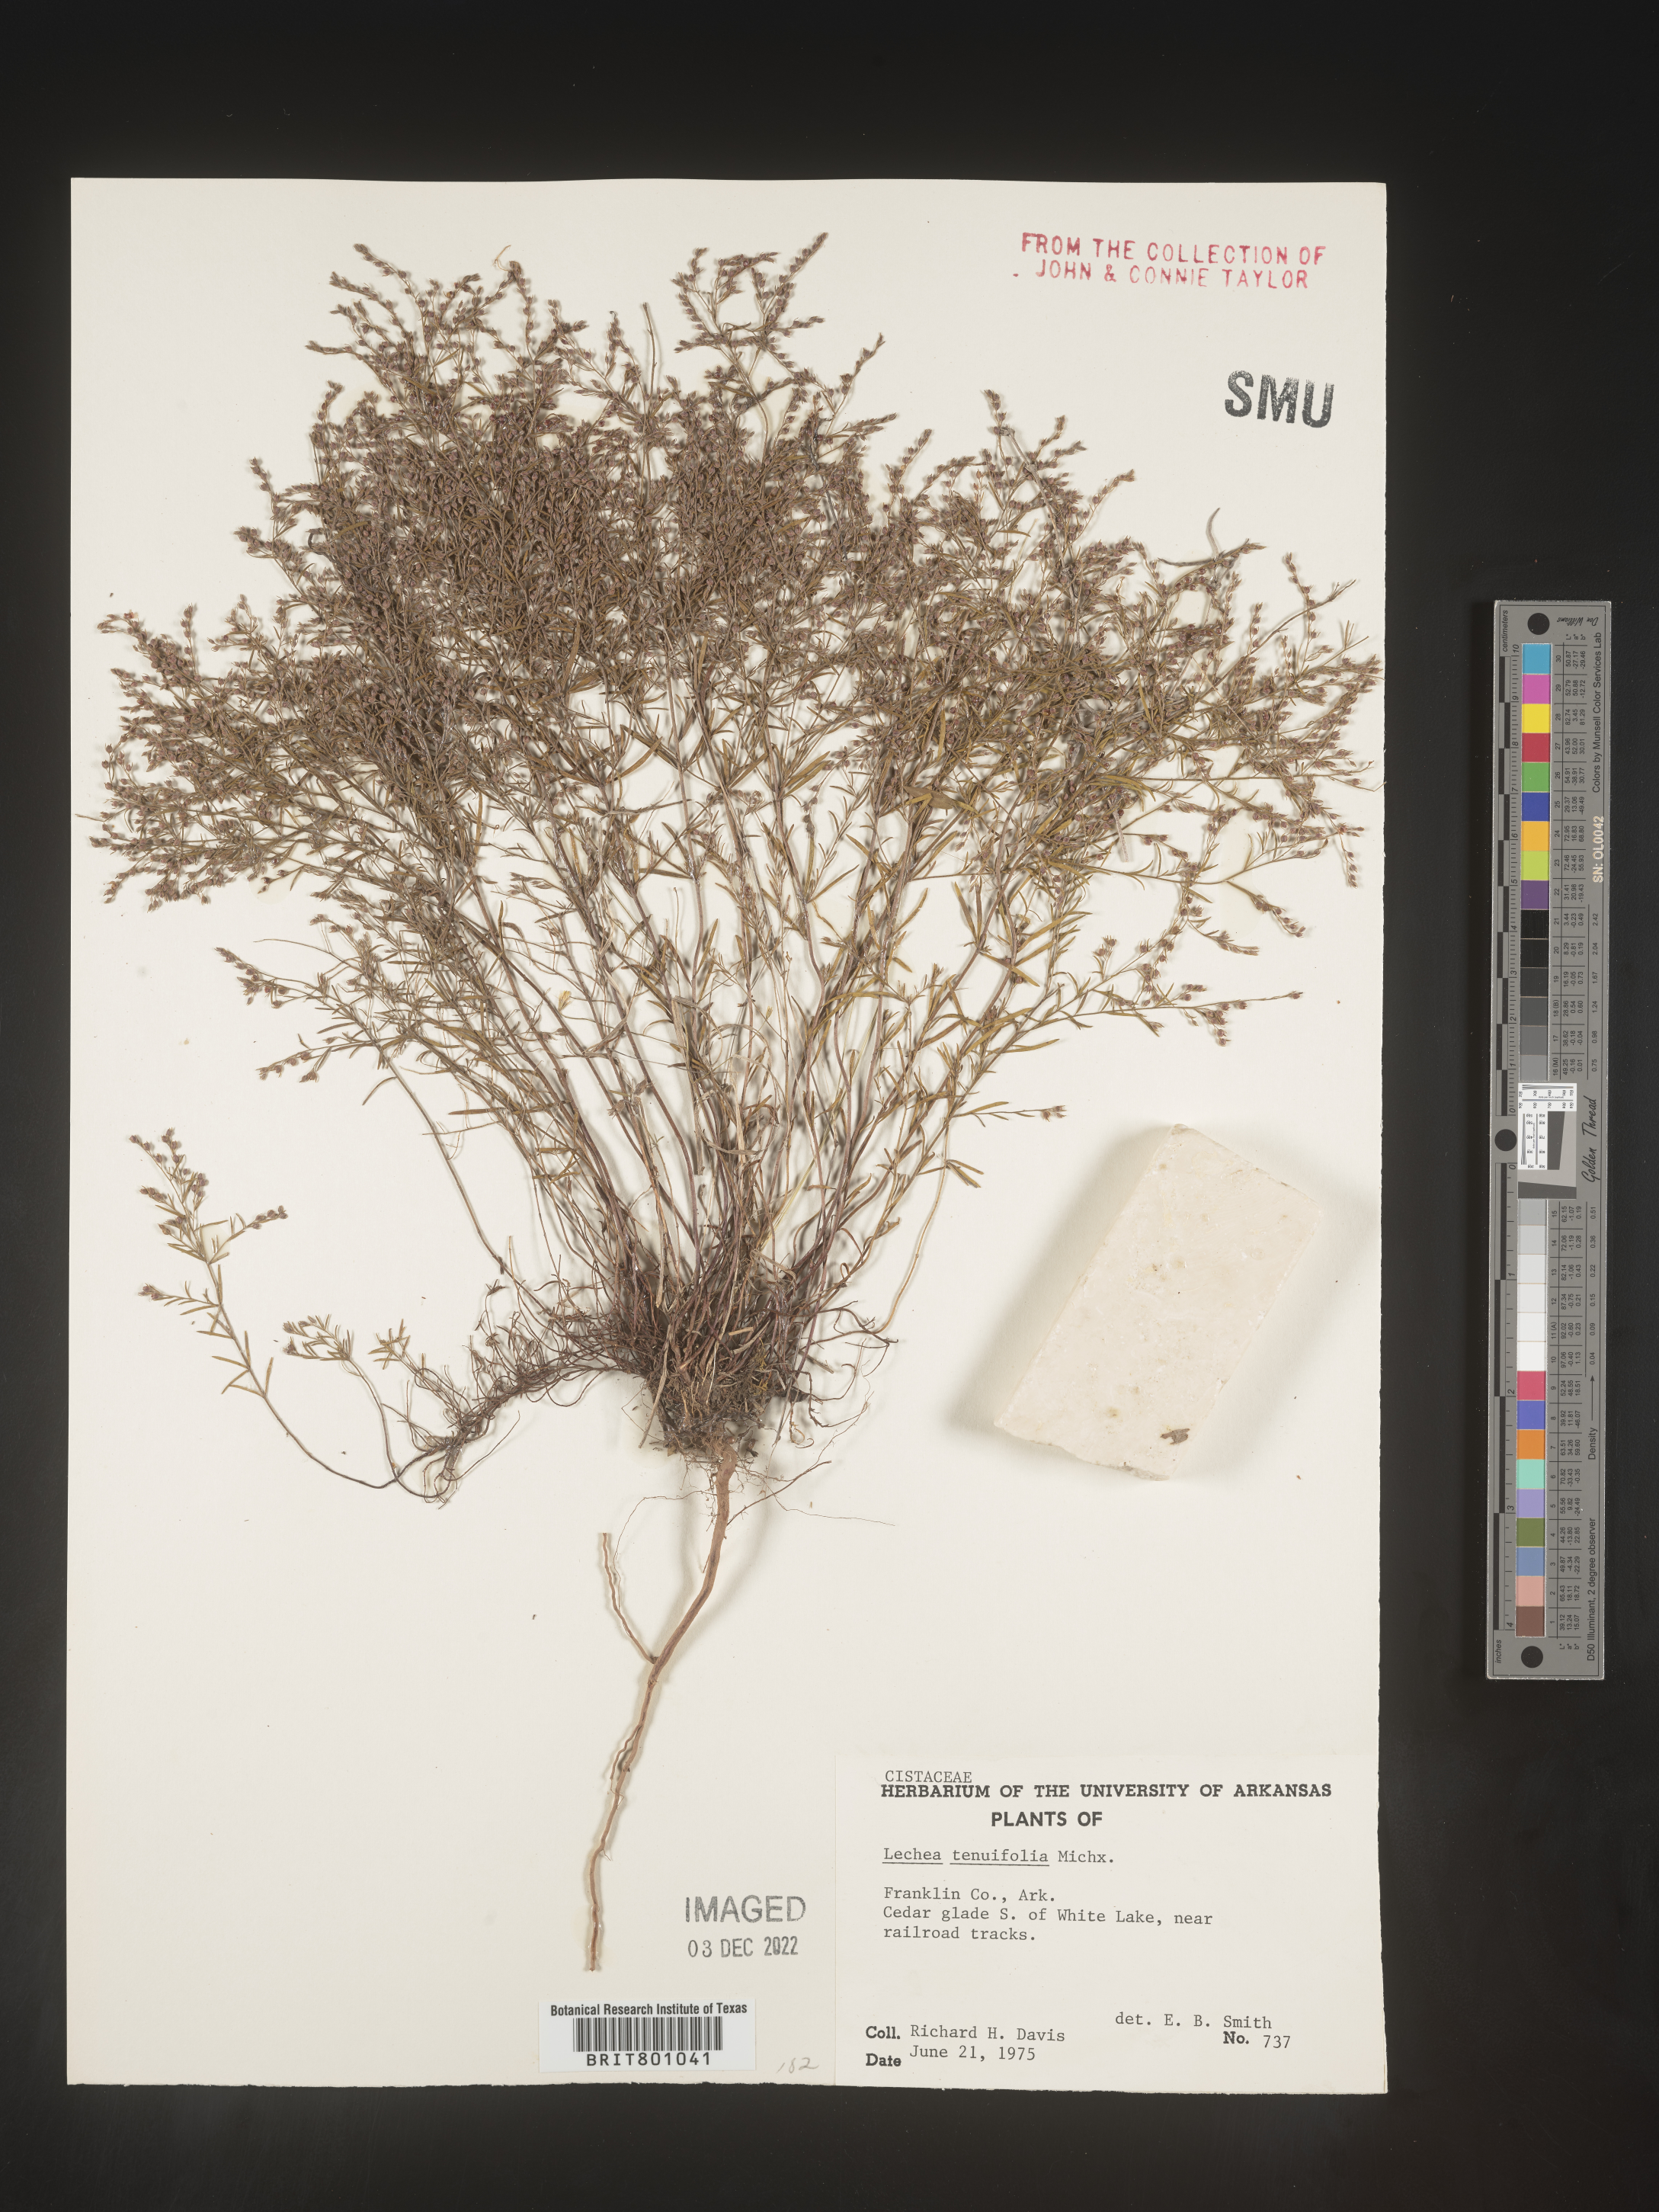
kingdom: Plantae
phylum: Tracheophyta
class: Magnoliopsida
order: Malvales
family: Cistaceae
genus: Lechea
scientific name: Lechea tenuifolia
